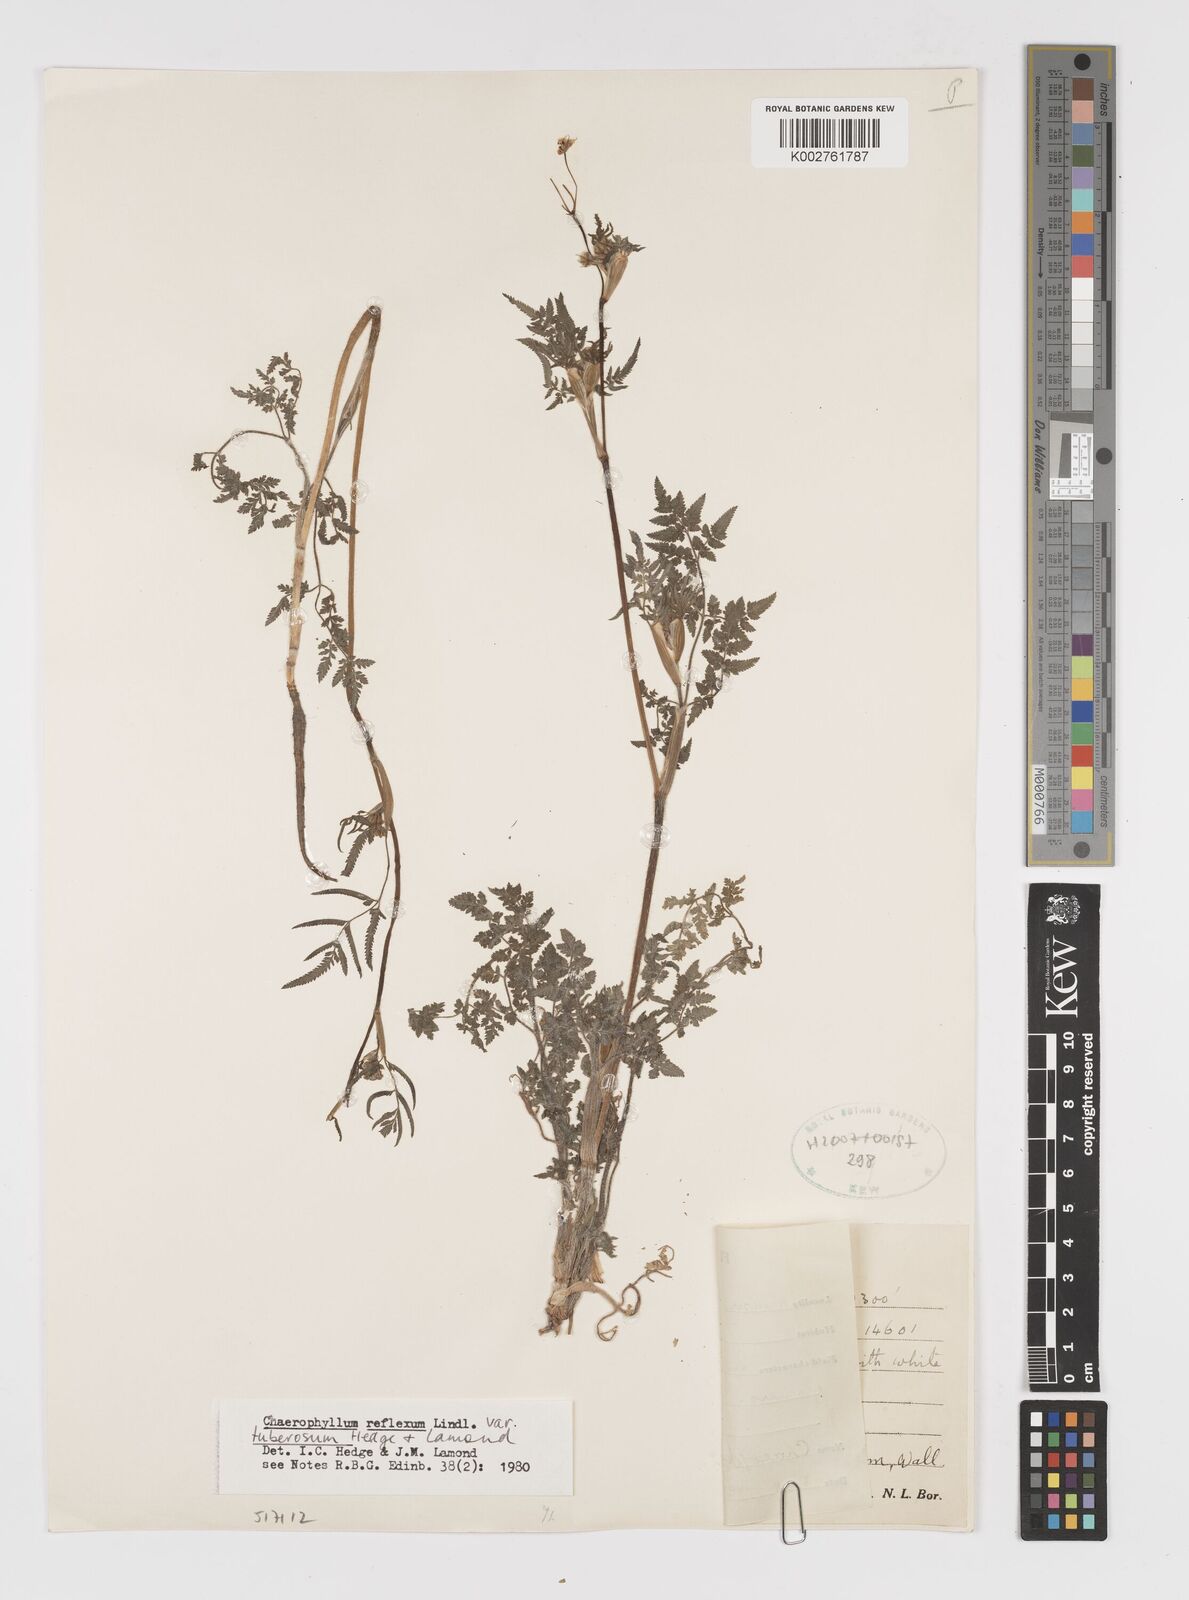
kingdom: Plantae
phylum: Tracheophyta
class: Magnoliopsida
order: Apiales
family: Apiaceae
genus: Chaerophyllum
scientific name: Chaerophyllum reflexum
